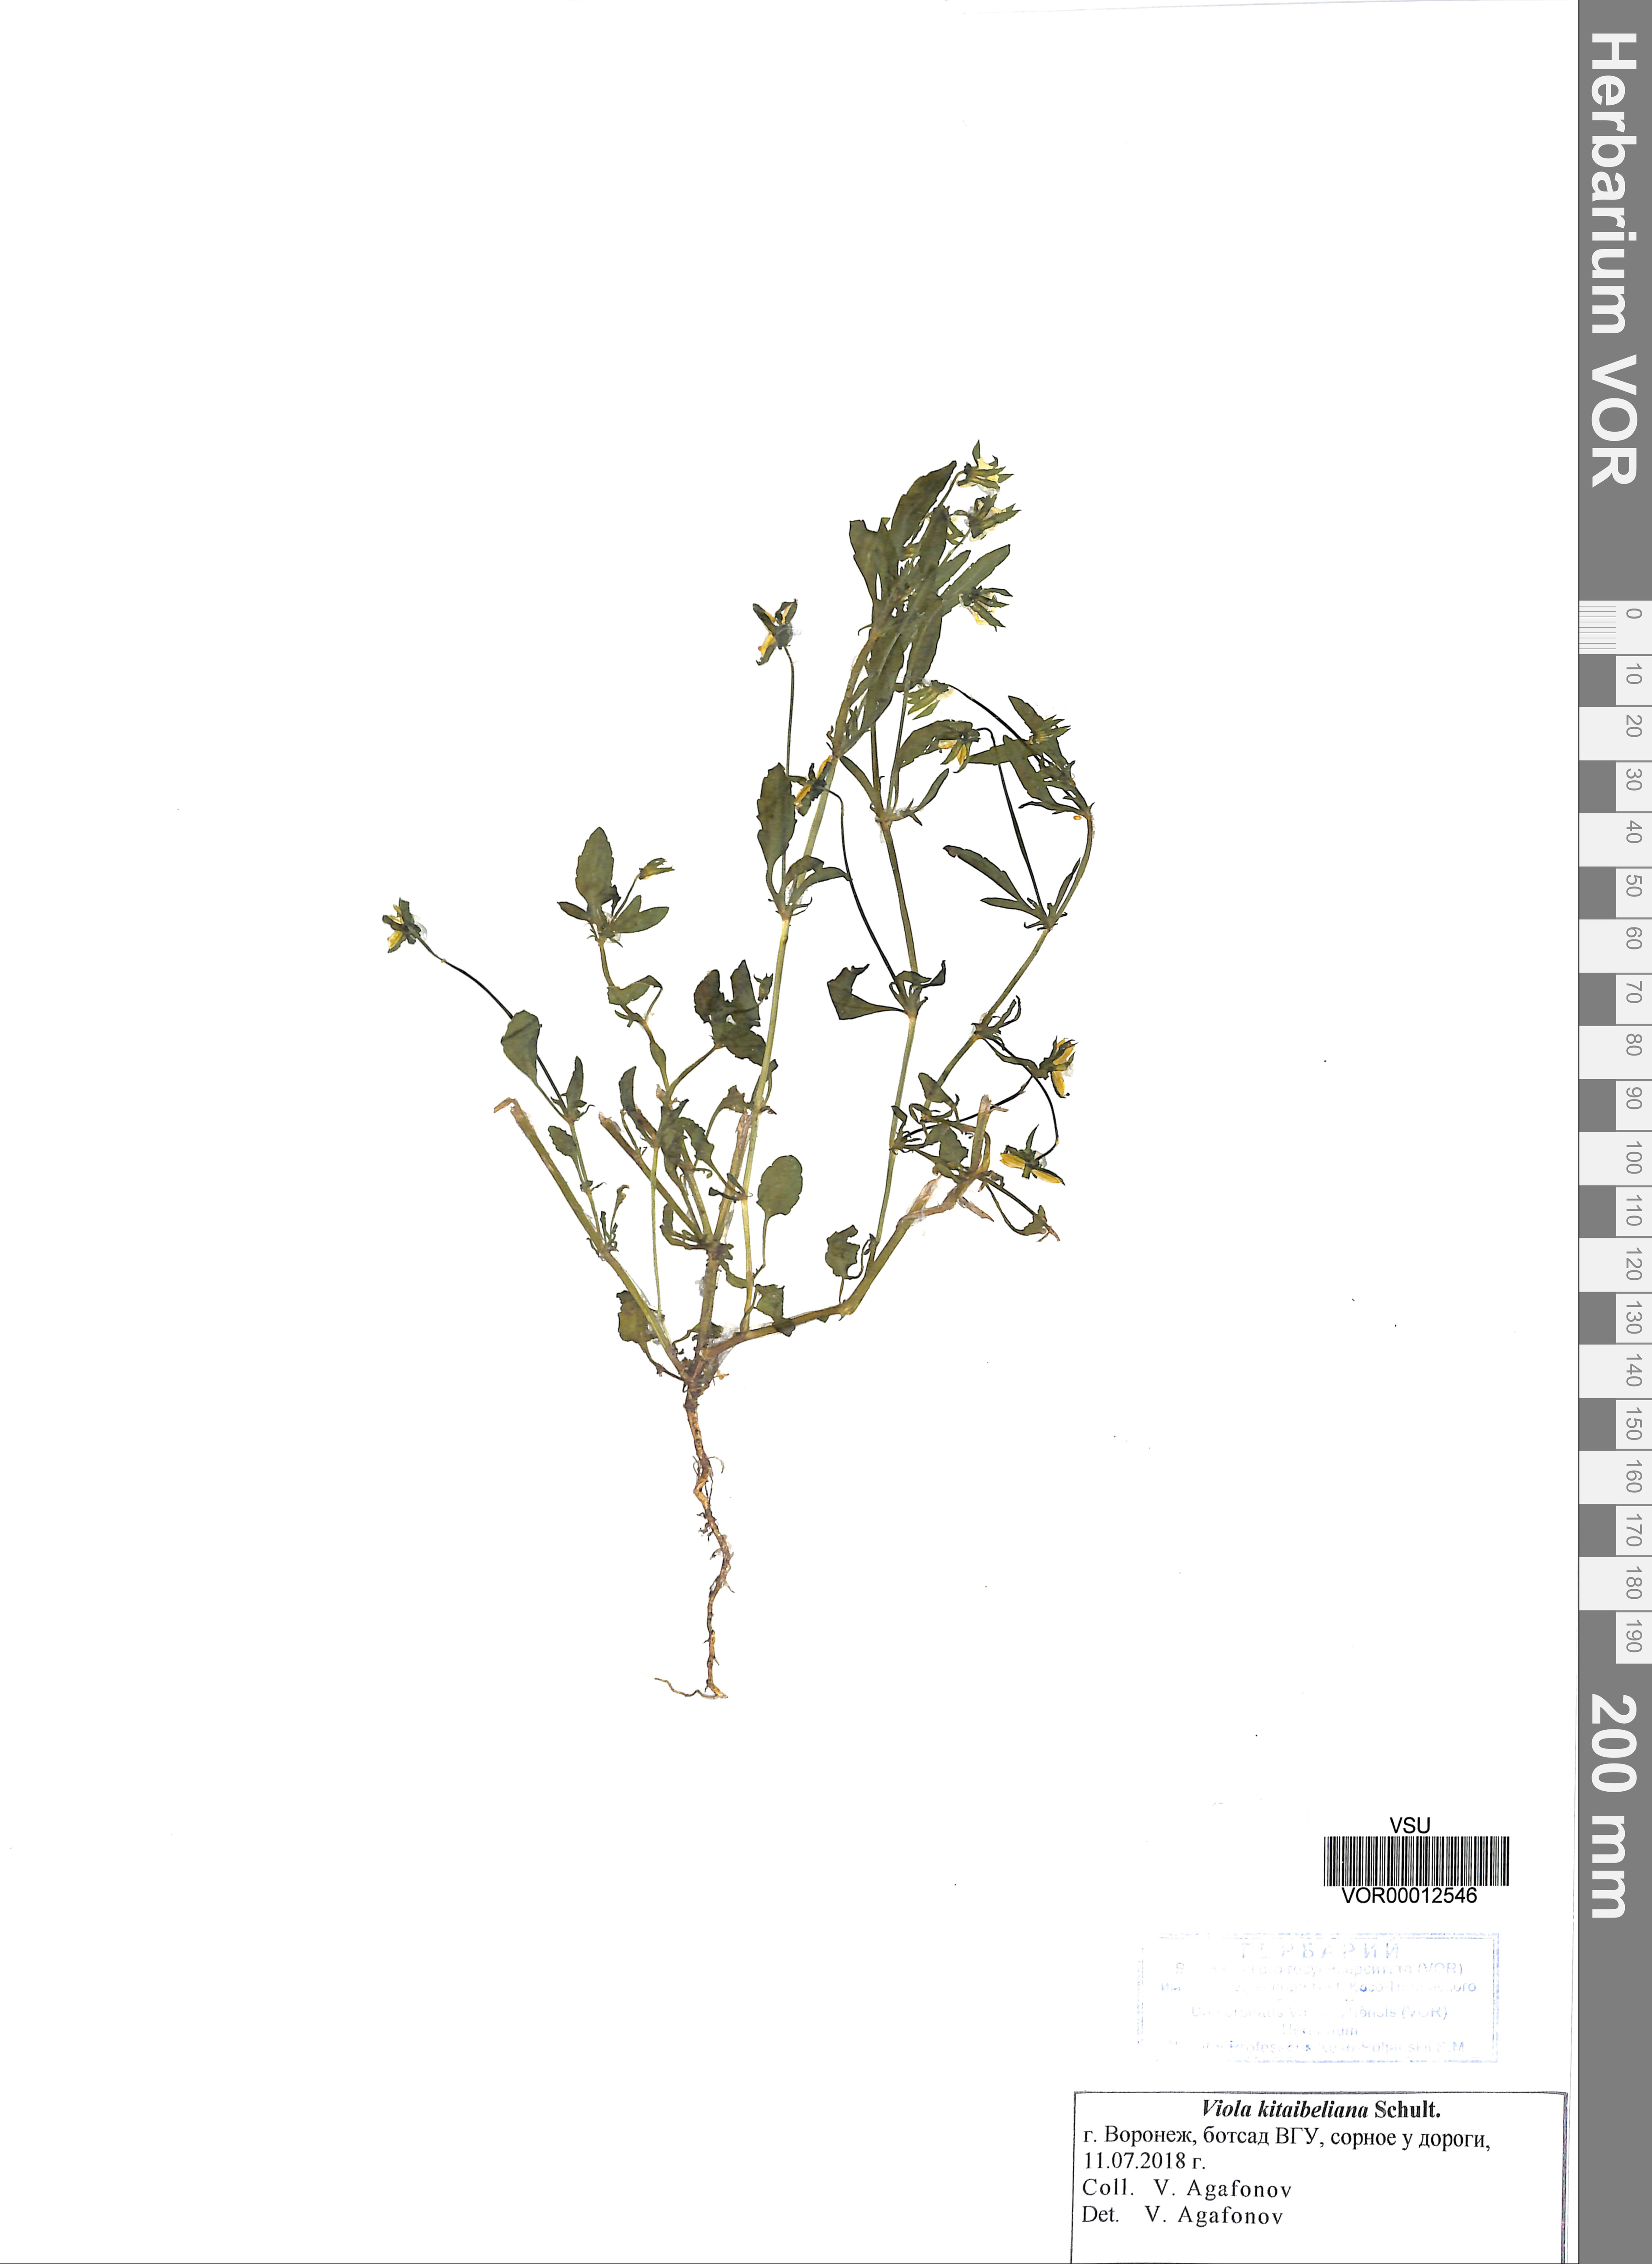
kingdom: Plantae
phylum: Tracheophyta
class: Magnoliopsida
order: Malpighiales
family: Violaceae
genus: Viola
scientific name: Viola kitaibeliana
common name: Dwarf pansy
